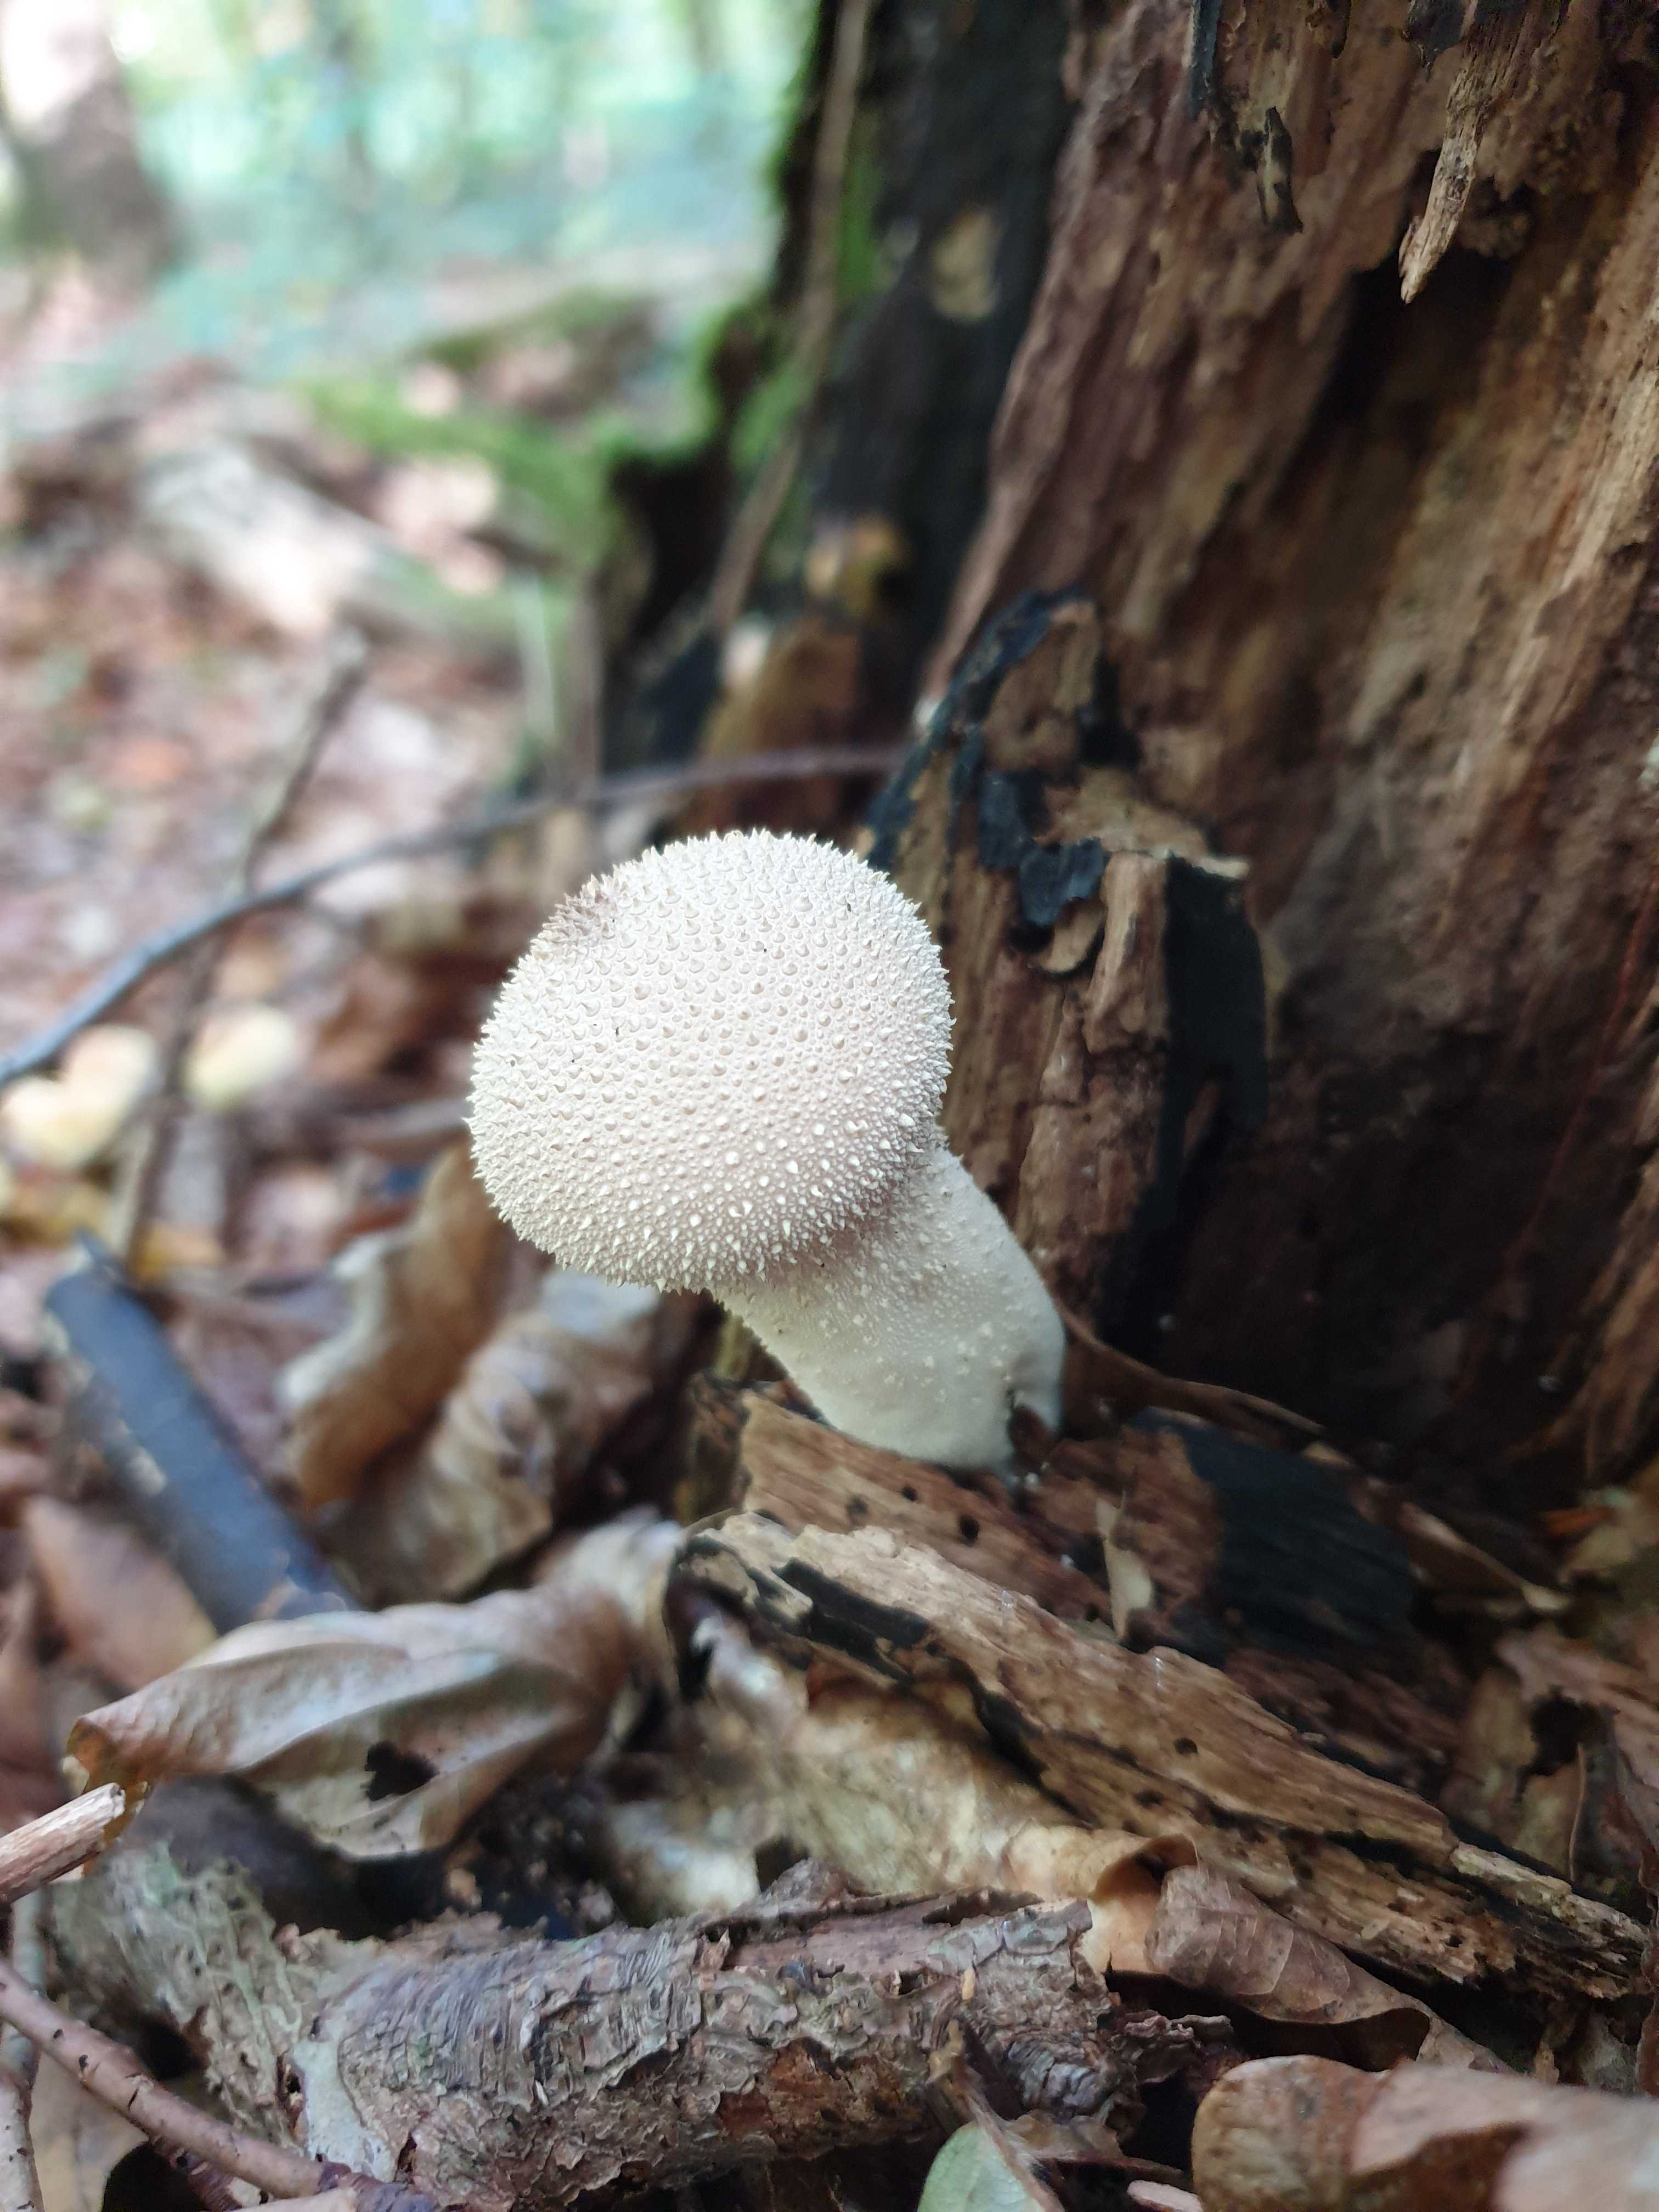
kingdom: Fungi
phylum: Basidiomycota
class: Agaricomycetes
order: Agaricales
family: Lycoperdaceae
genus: Lycoperdon
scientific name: Lycoperdon perlatum
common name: krystal-støvbold
